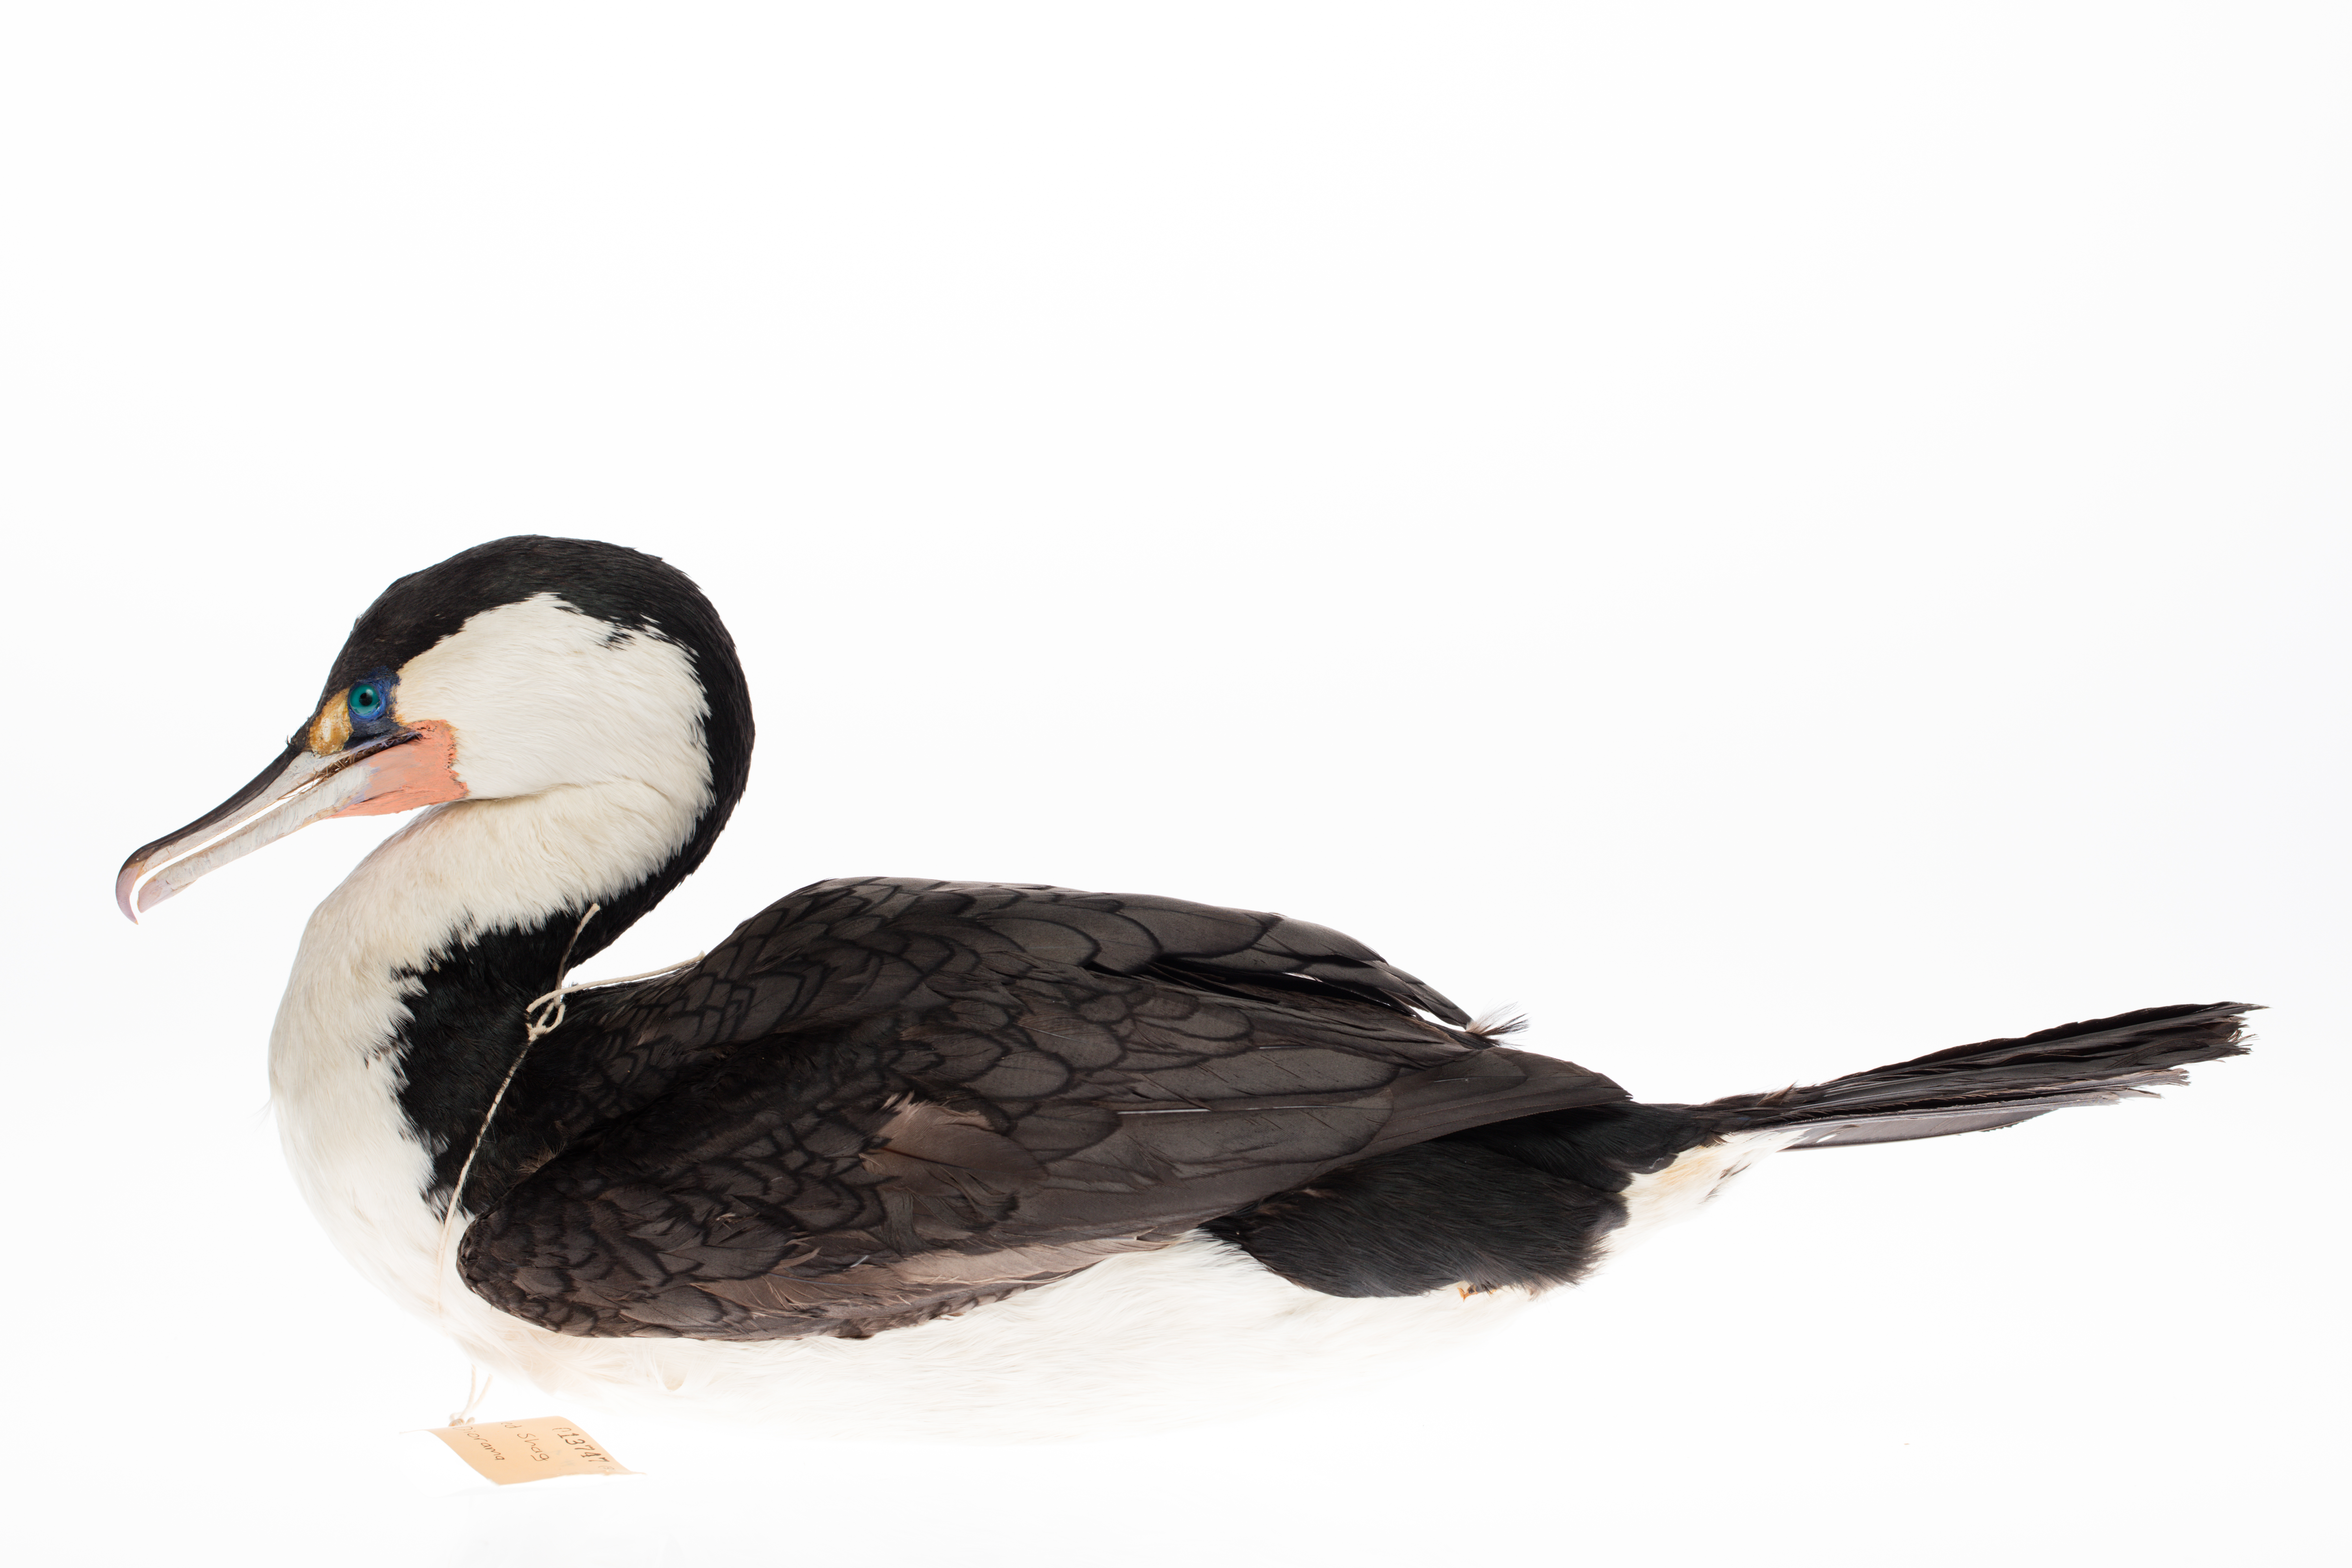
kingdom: Animalia
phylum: Chordata
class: Aves
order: Suliformes
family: Phalacrocoracidae
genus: Phalacrocorax
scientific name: Phalacrocorax varius
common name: Pied cormorant
